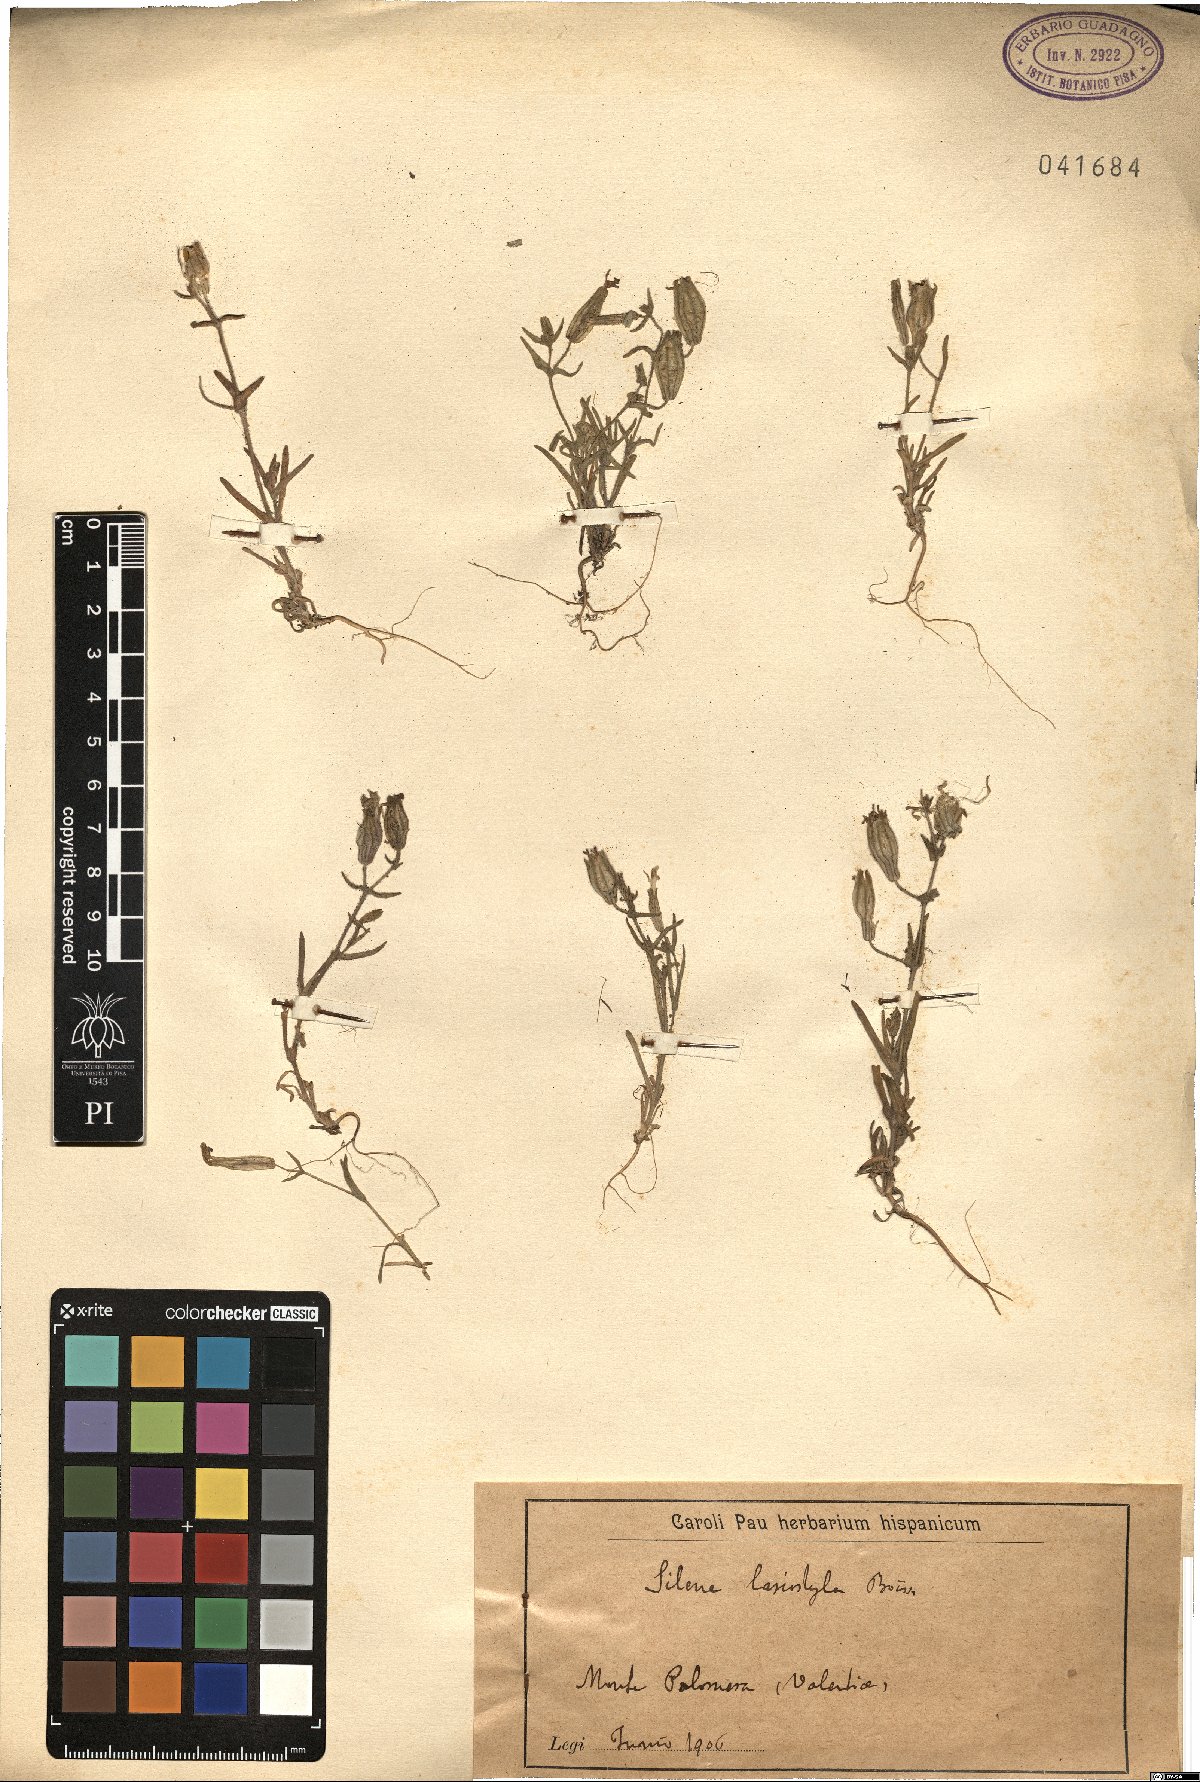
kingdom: Plantae
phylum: Tracheophyta
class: Magnoliopsida
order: Caryophyllales
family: Caryophyllaceae
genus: Silene
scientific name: Silene psammitis
